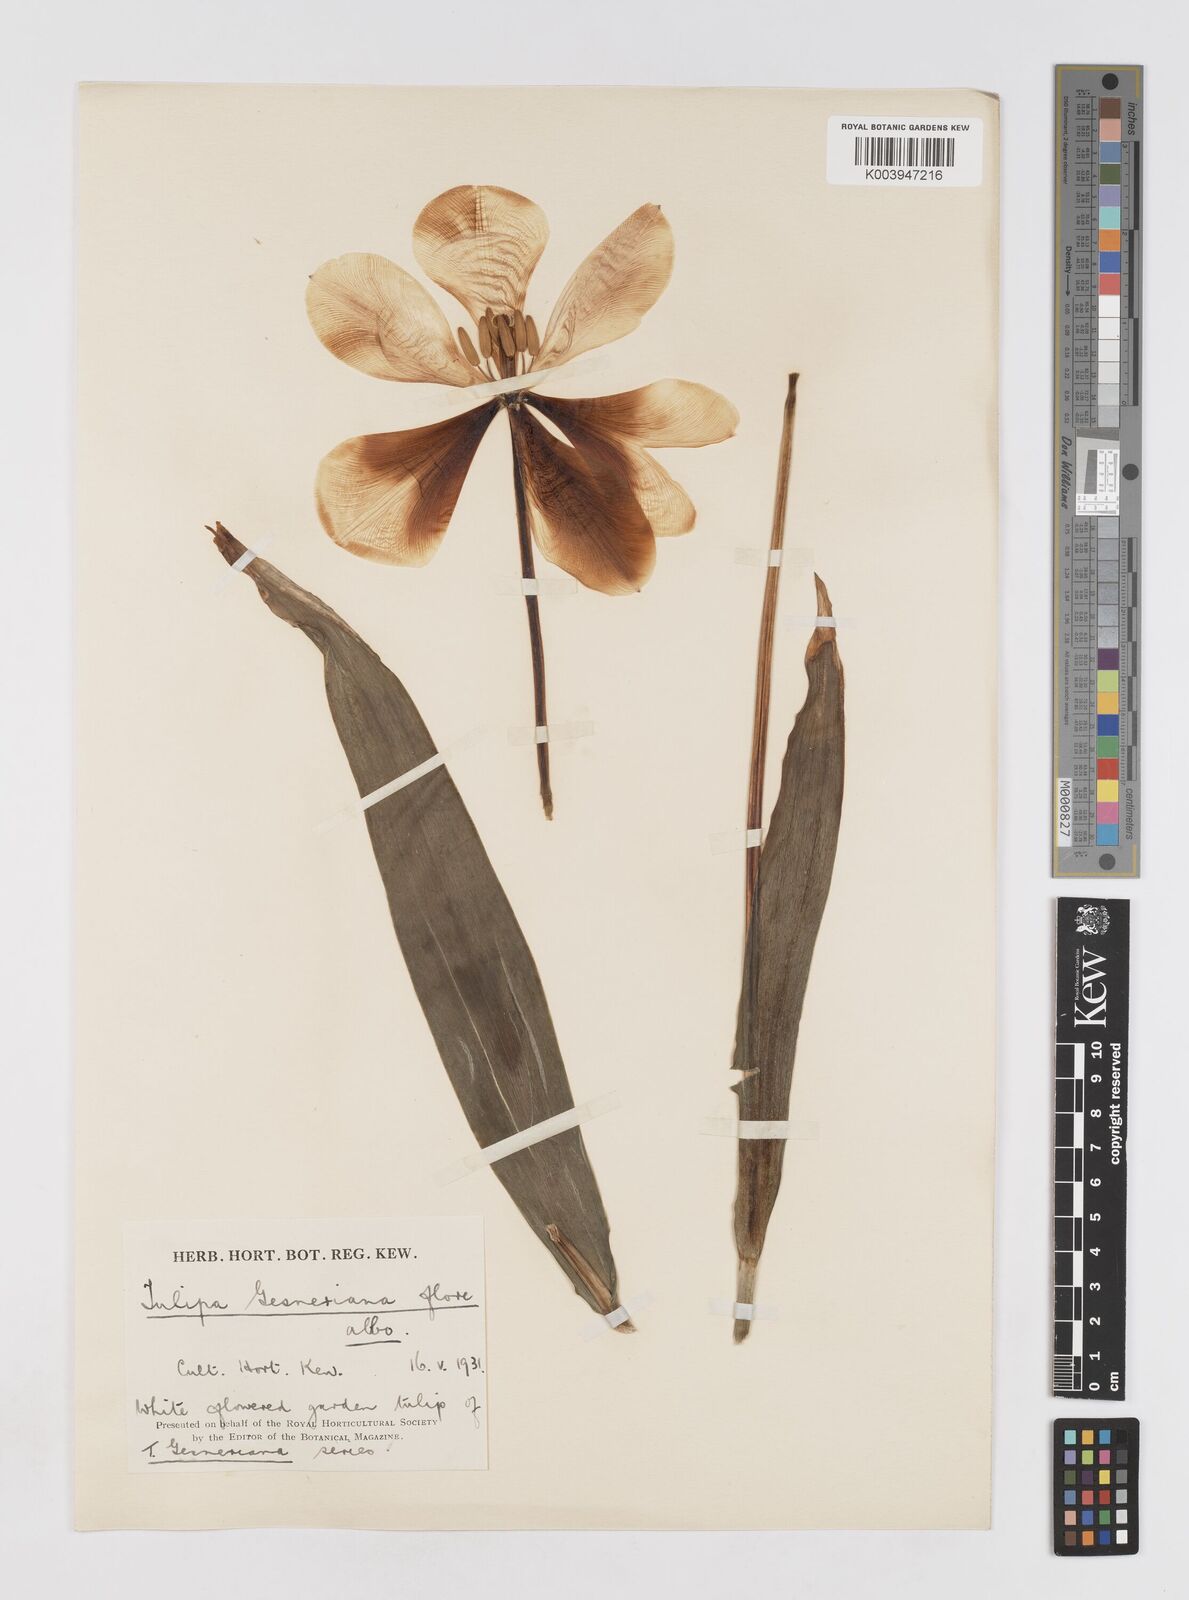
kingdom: Plantae
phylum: Tracheophyta
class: Liliopsida
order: Liliales
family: Liliaceae
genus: Tulipa
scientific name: Tulipa gesneriana
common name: Garden tulip
